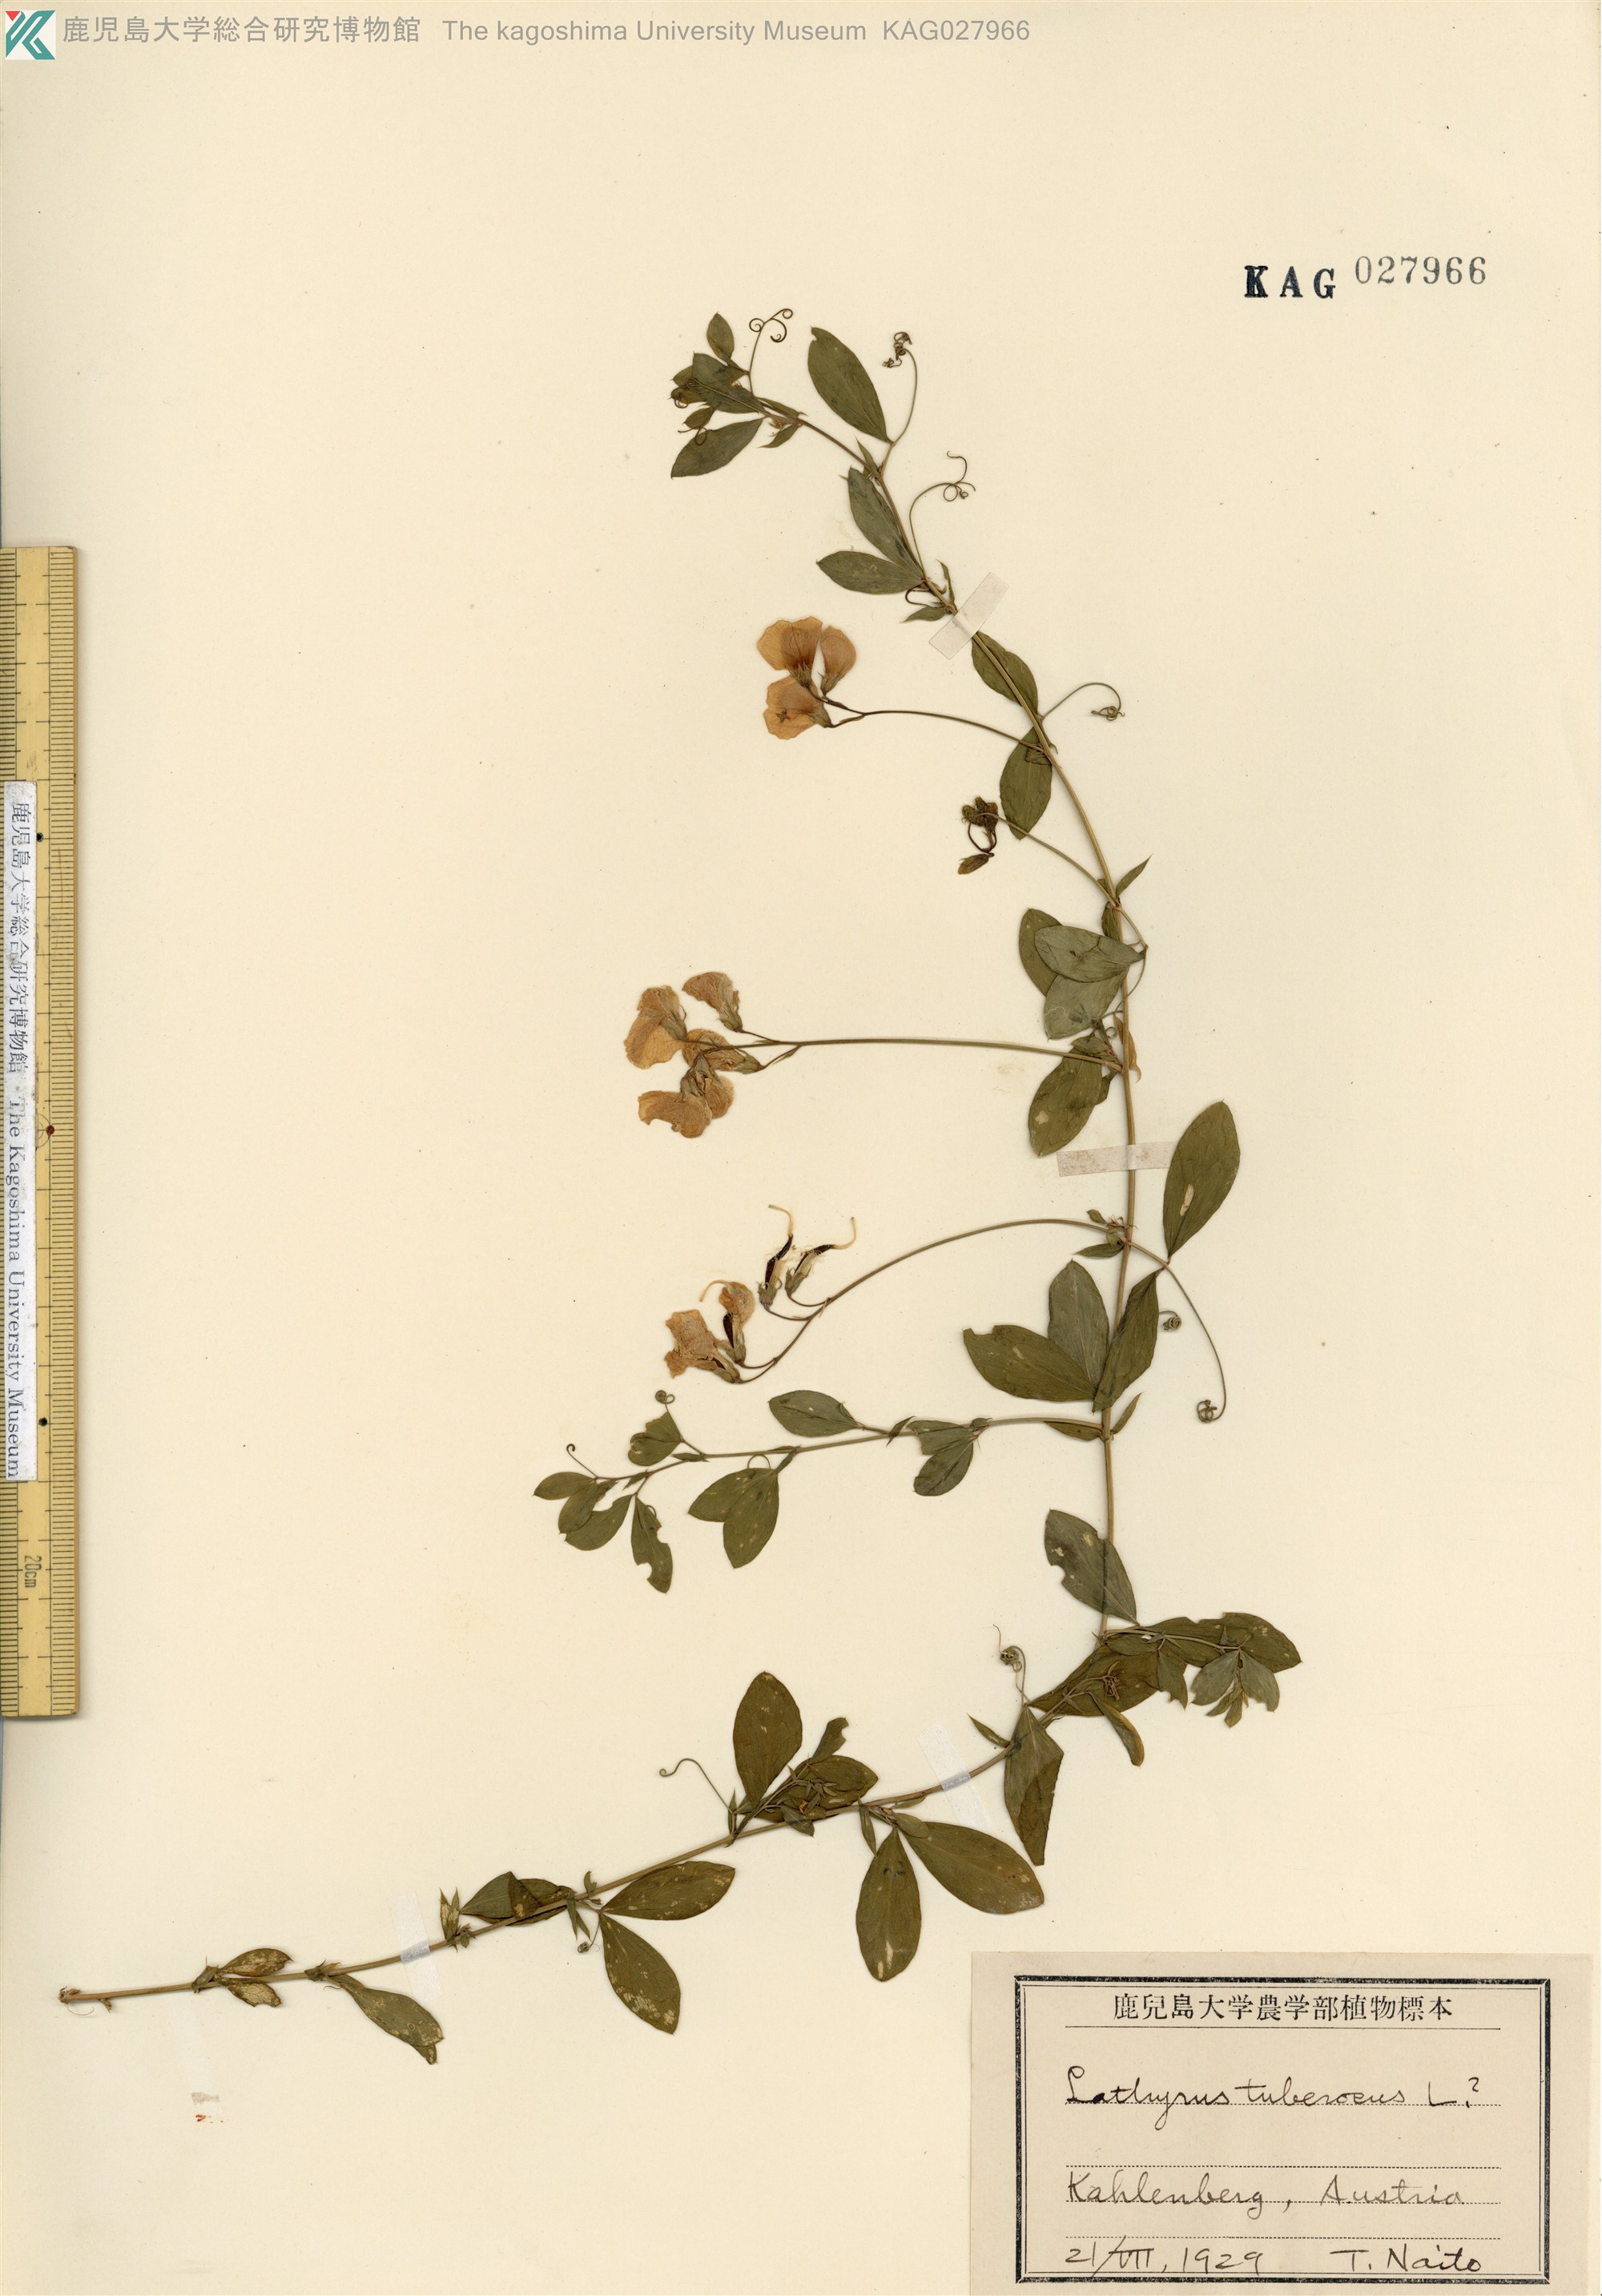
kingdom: Plantae
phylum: Tracheophyta
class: Magnoliopsida
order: Fabales
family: Fabaceae
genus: Lathyrus
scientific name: Lathyrus tuberosus
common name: Tuberous pea
